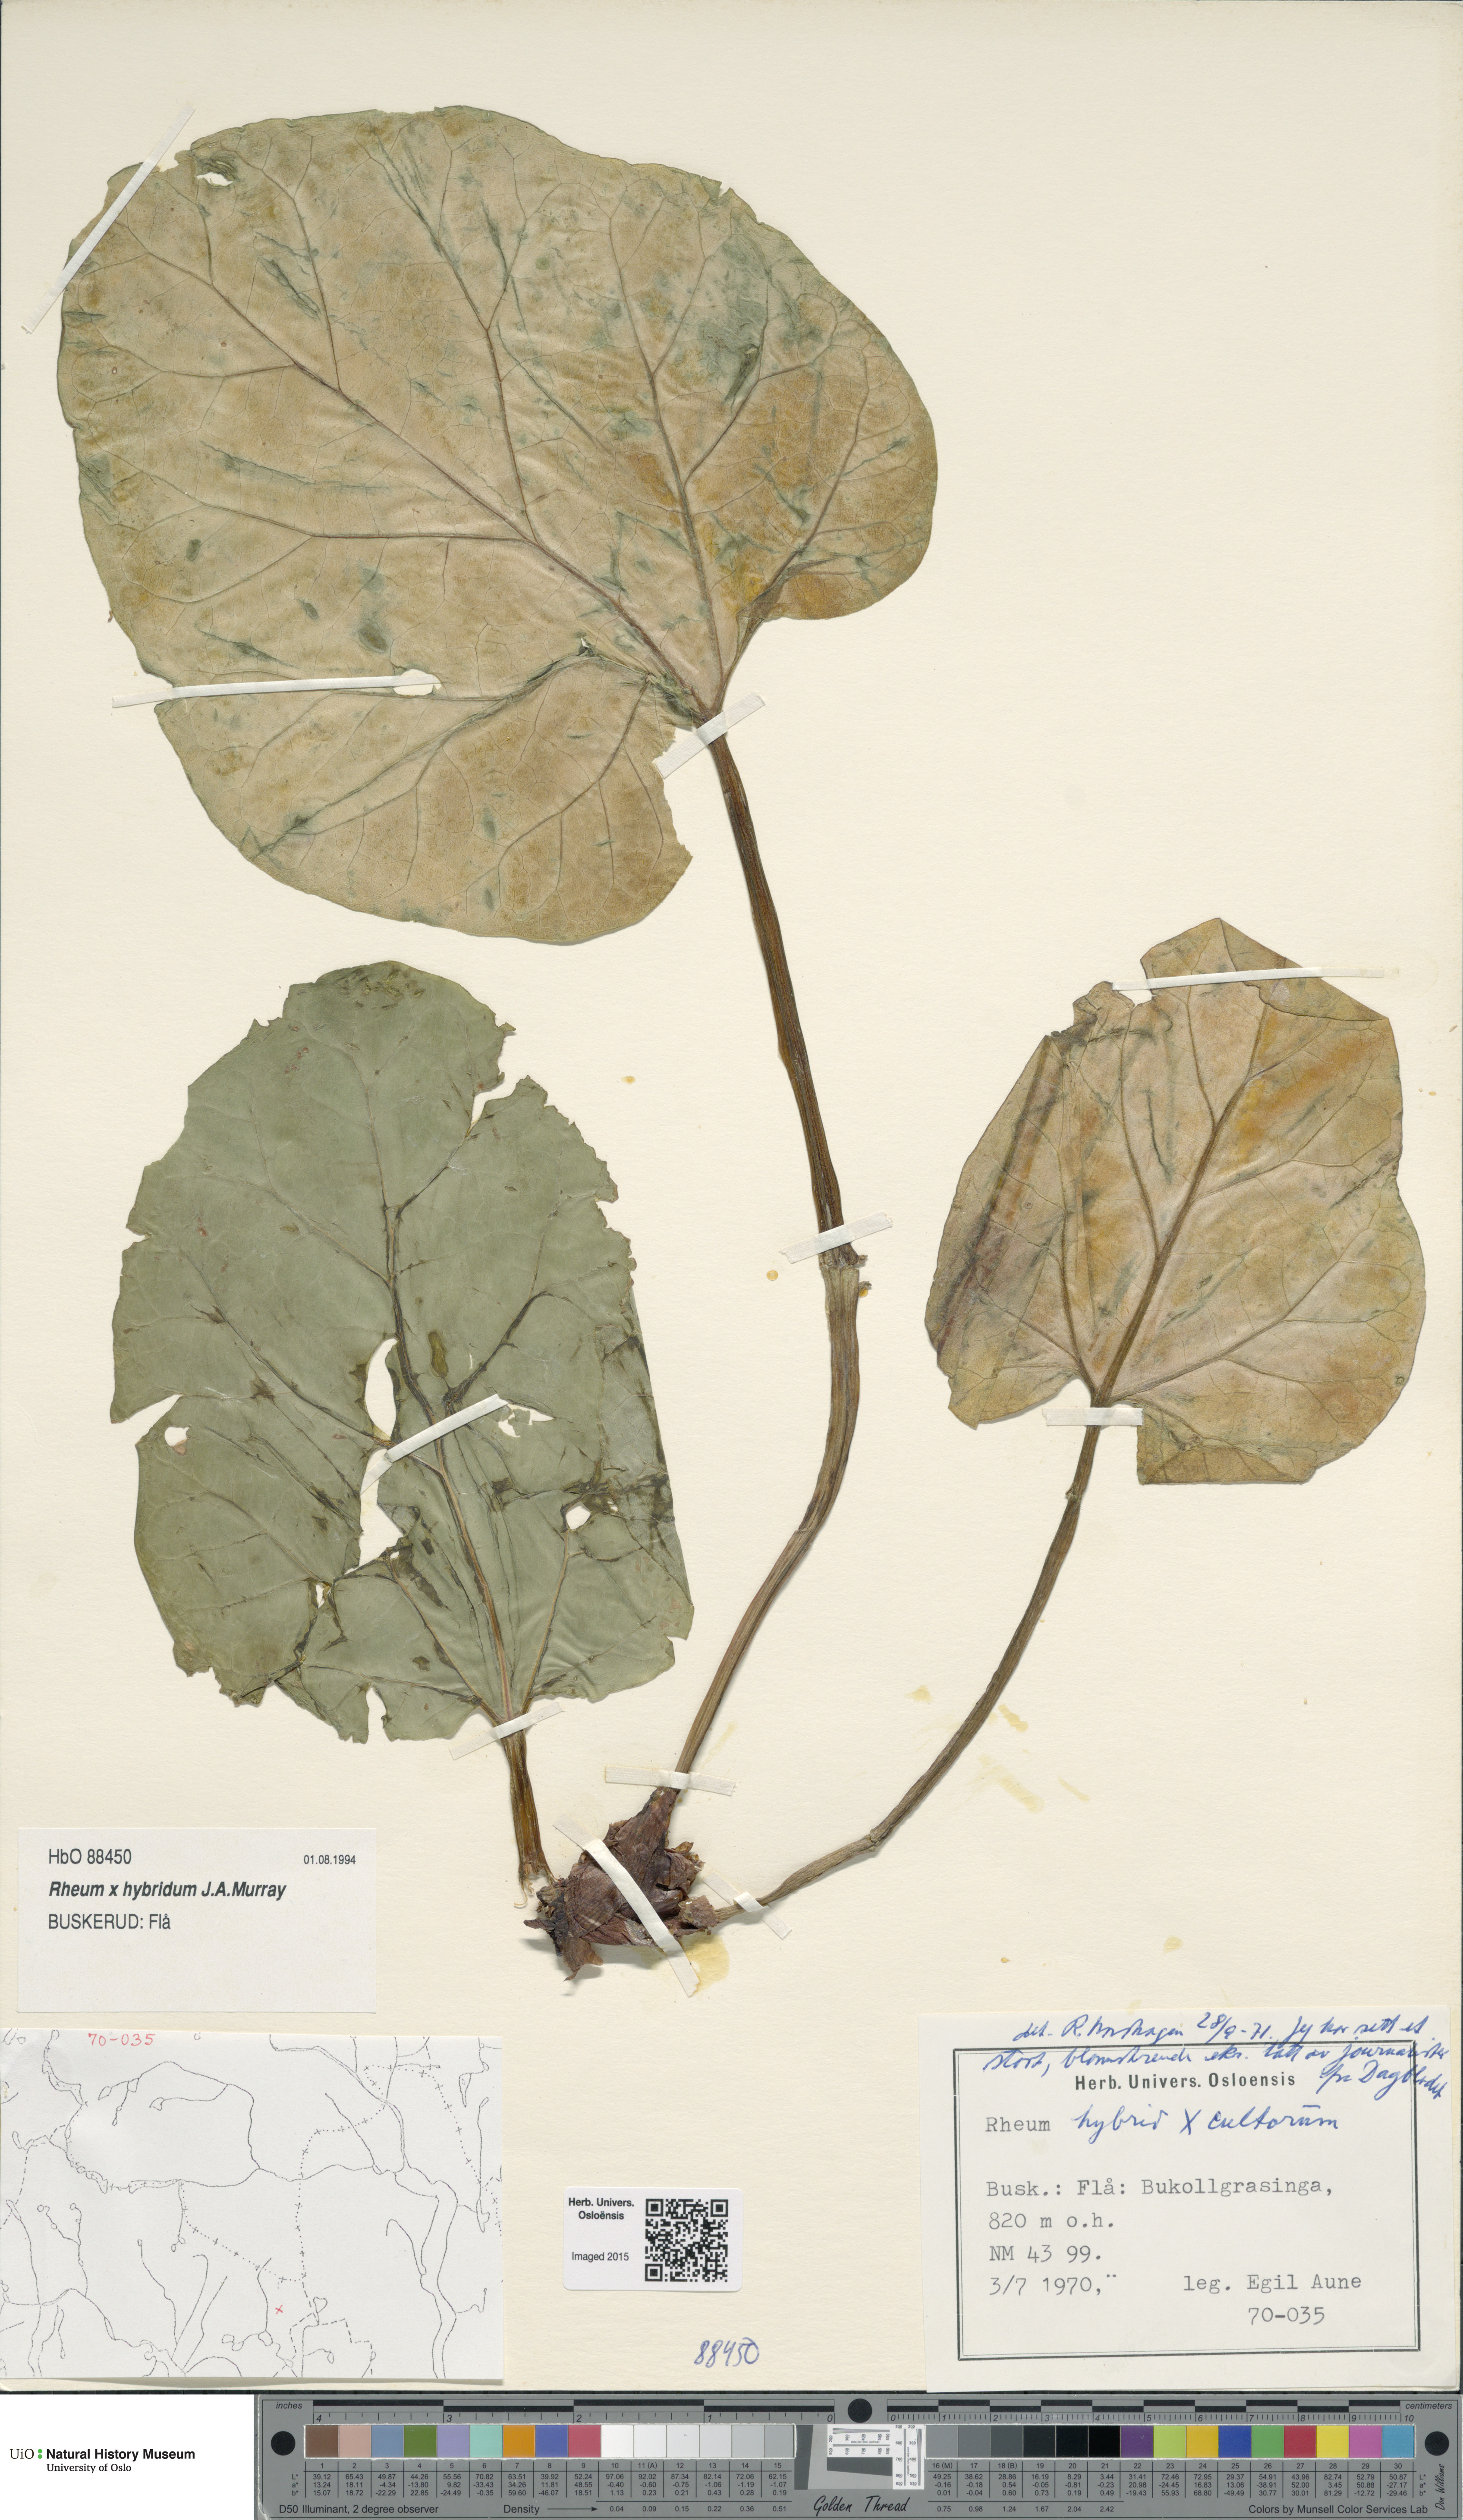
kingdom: Plantae
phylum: Tracheophyta
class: Magnoliopsida
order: Caryophyllales
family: Polygonaceae
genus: Rheum
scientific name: Rheum rhabarbarum
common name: Garden rhubarb
